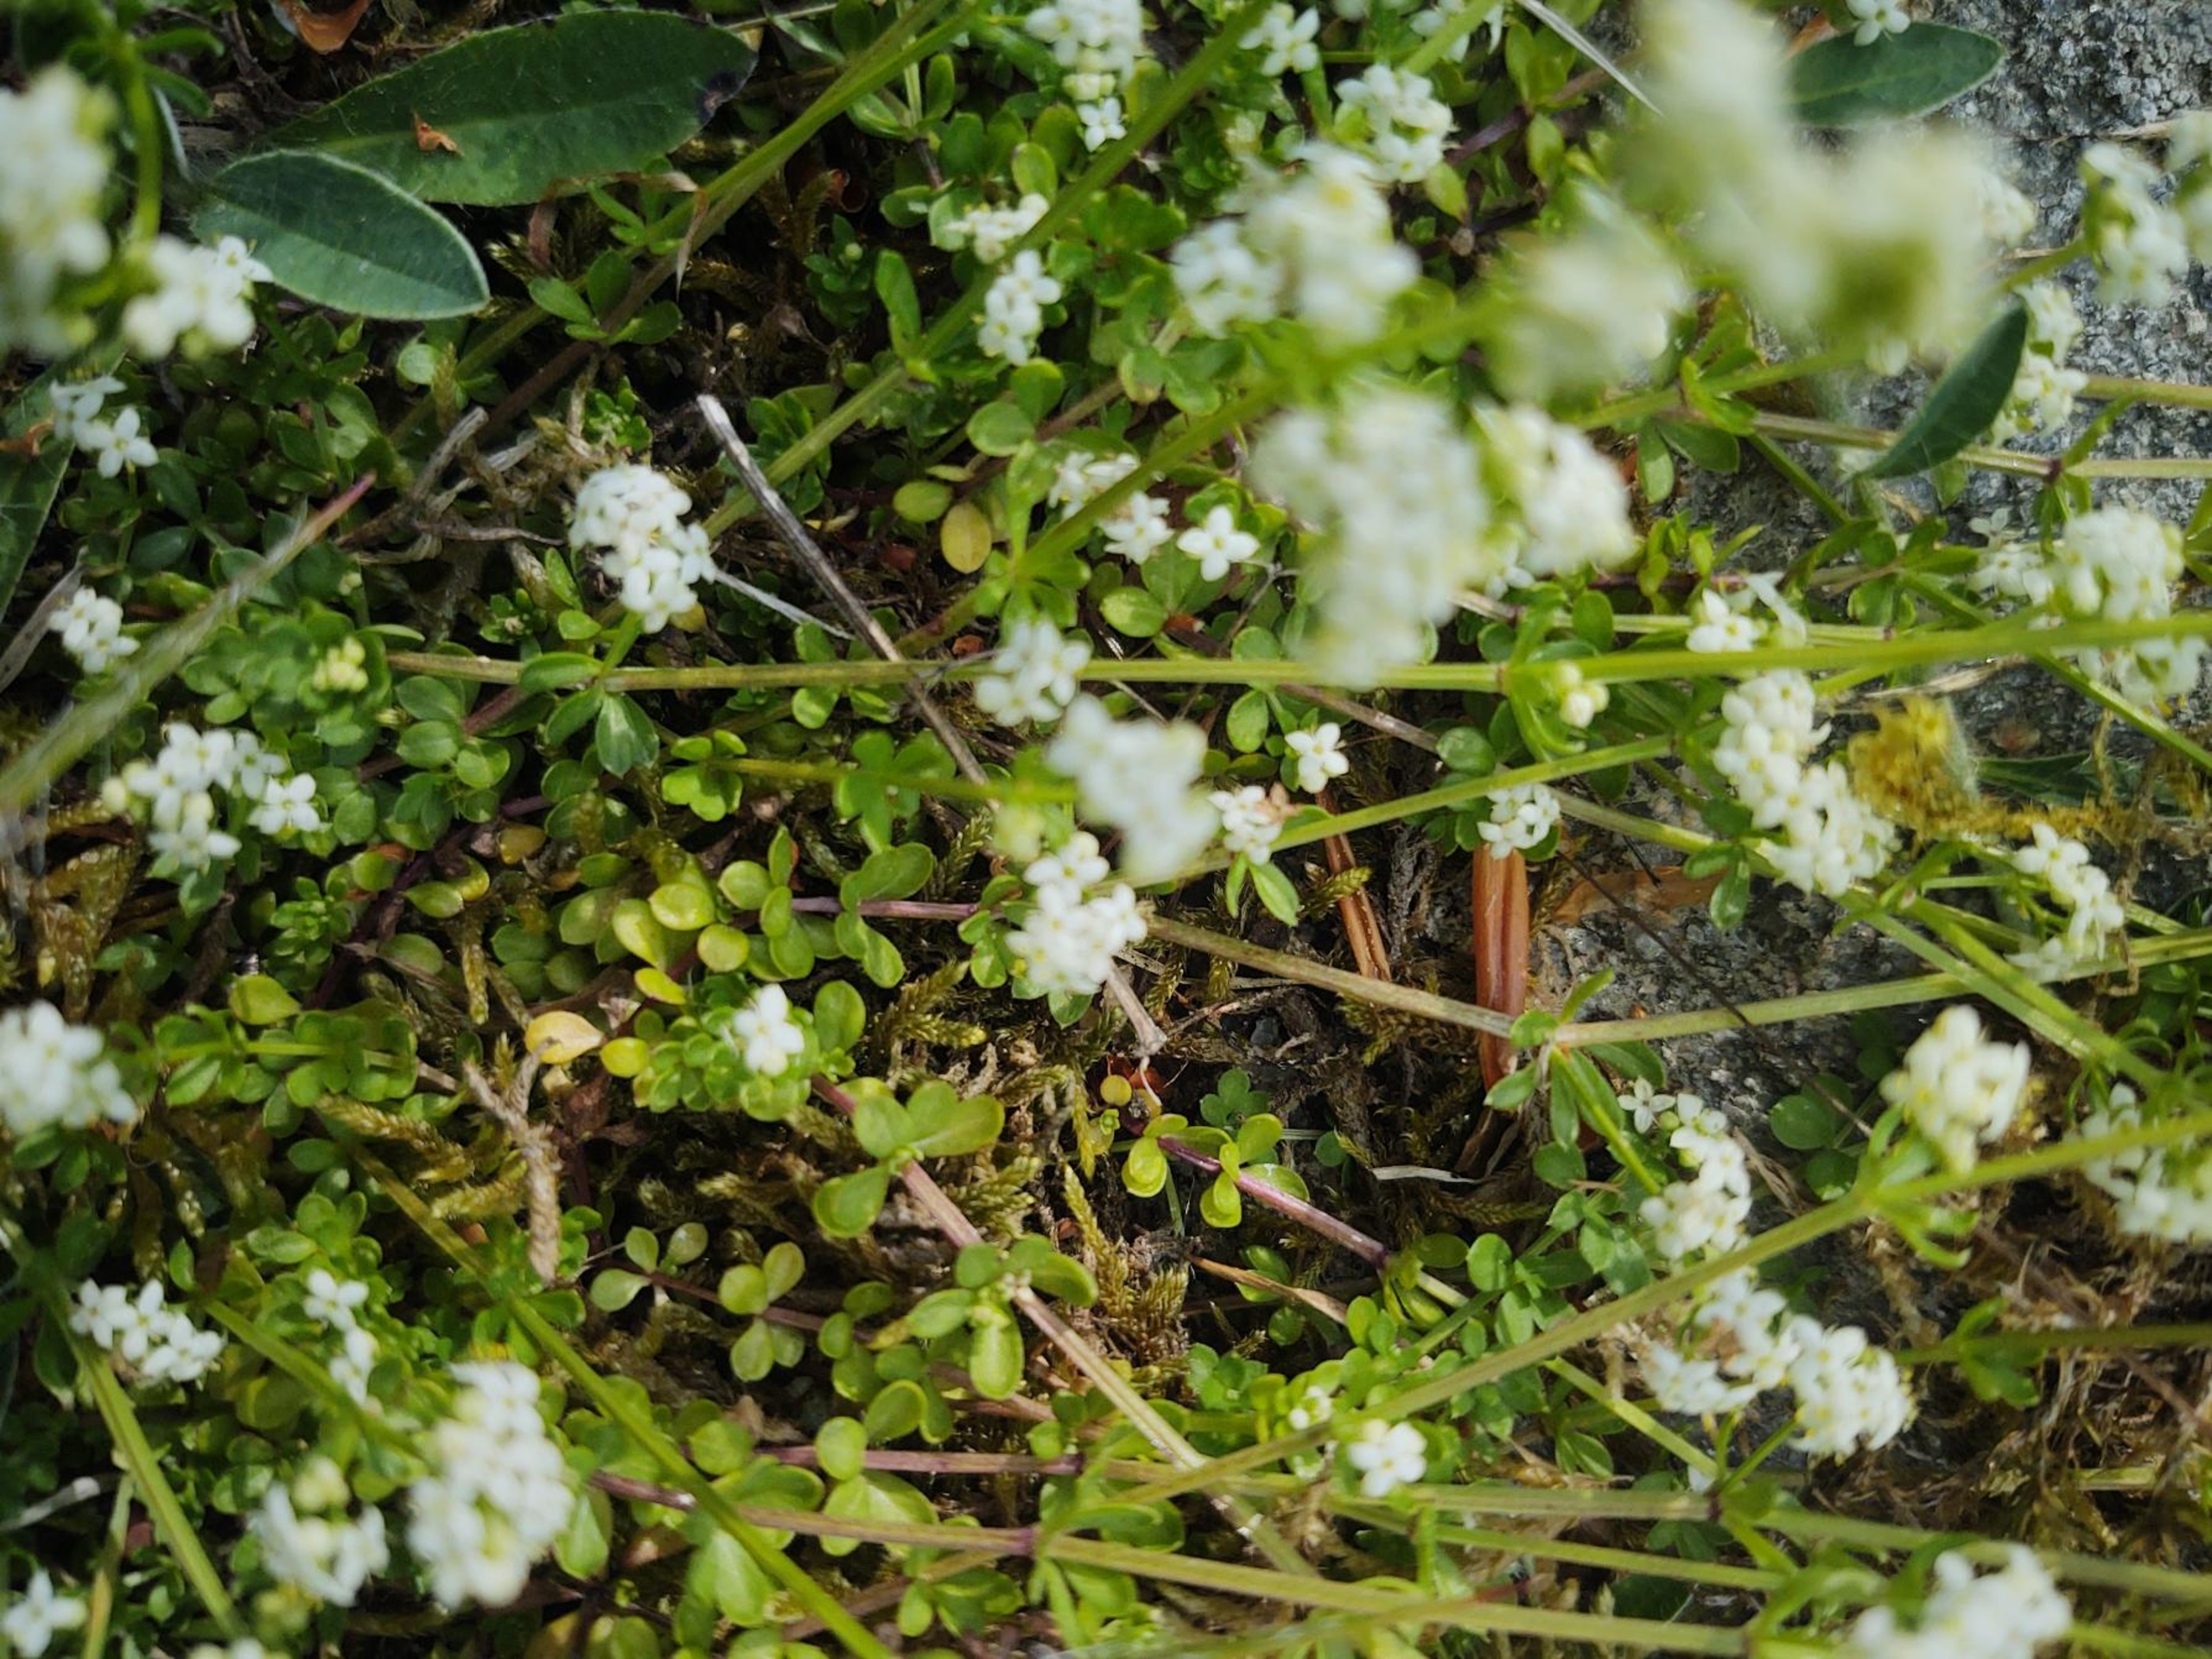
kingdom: Plantae
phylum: Tracheophyta
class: Magnoliopsida
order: Gentianales
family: Rubiaceae
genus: Galium
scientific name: Galium saxatile
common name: Lyng-snerre
